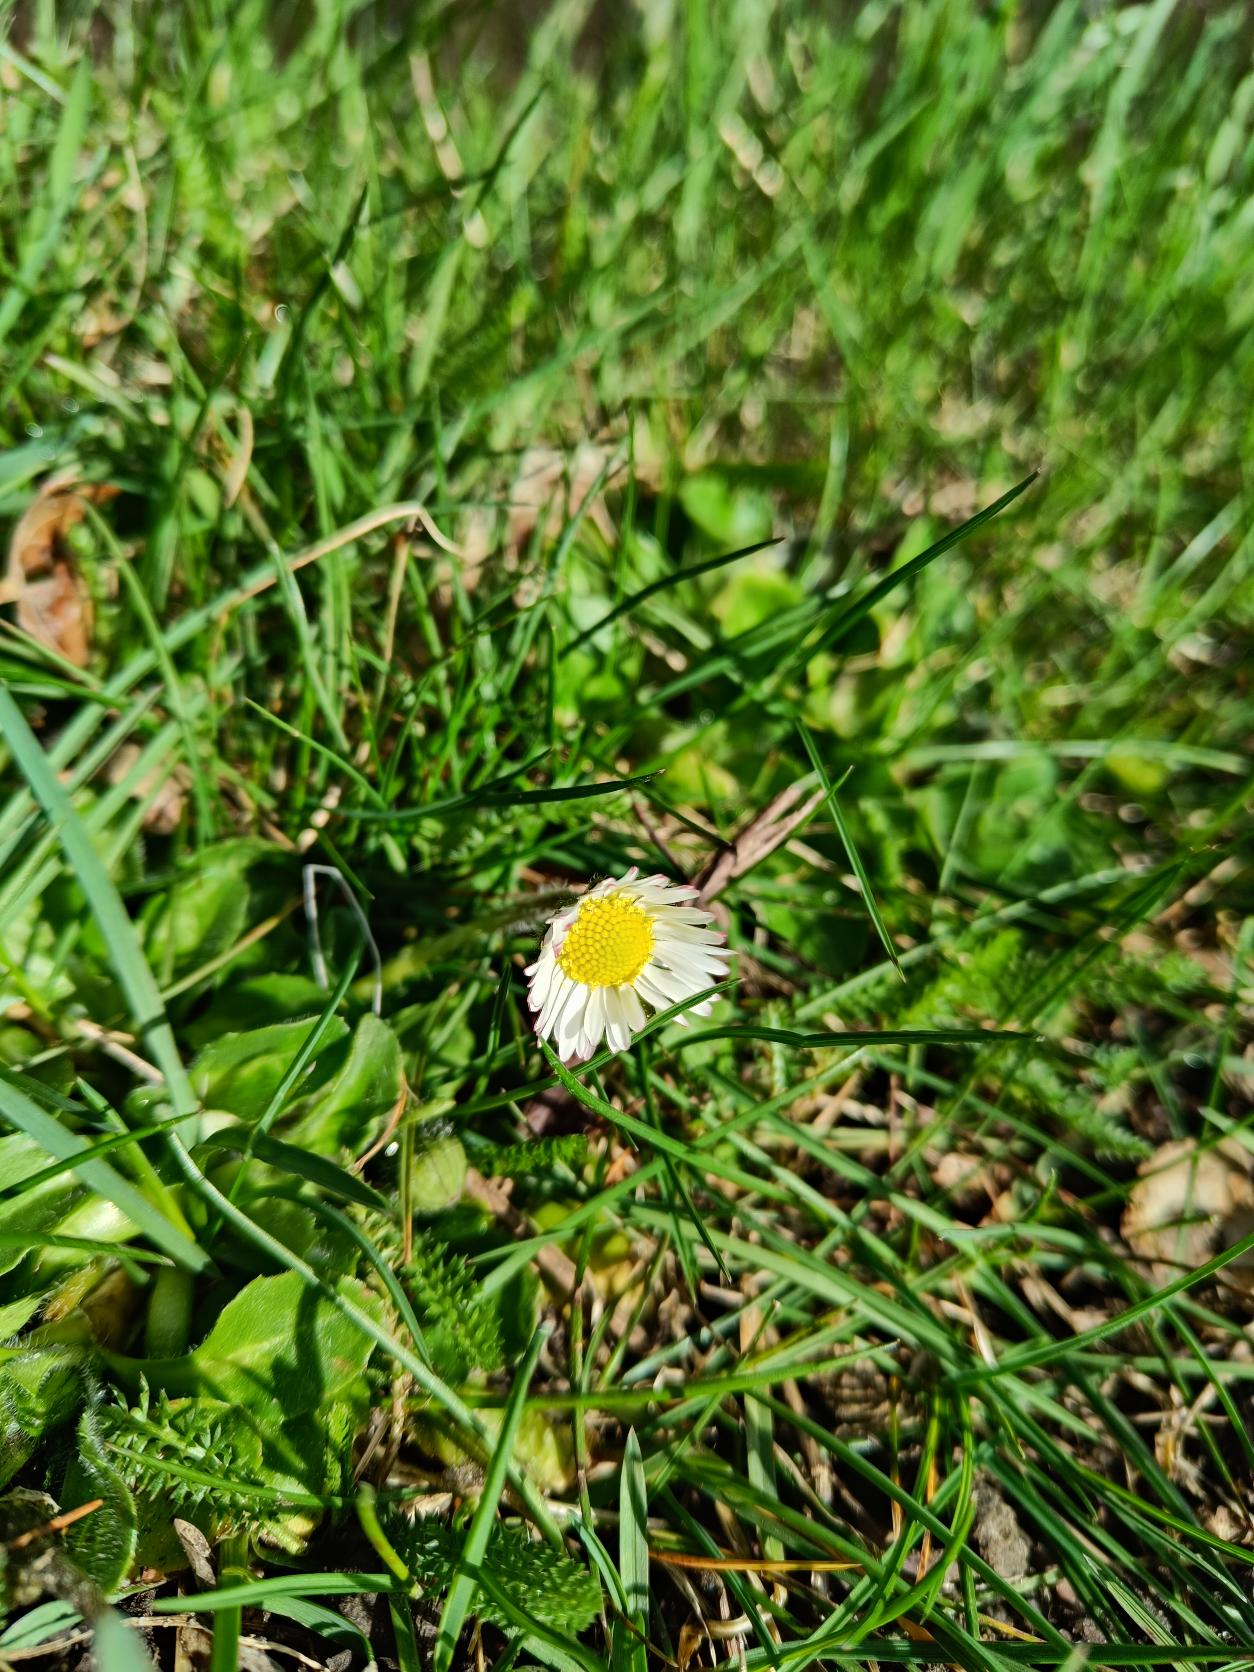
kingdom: Plantae
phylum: Tracheophyta
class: Magnoliopsida
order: Asterales
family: Asteraceae
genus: Bellis
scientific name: Bellis perennis
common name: Tusindfryd
